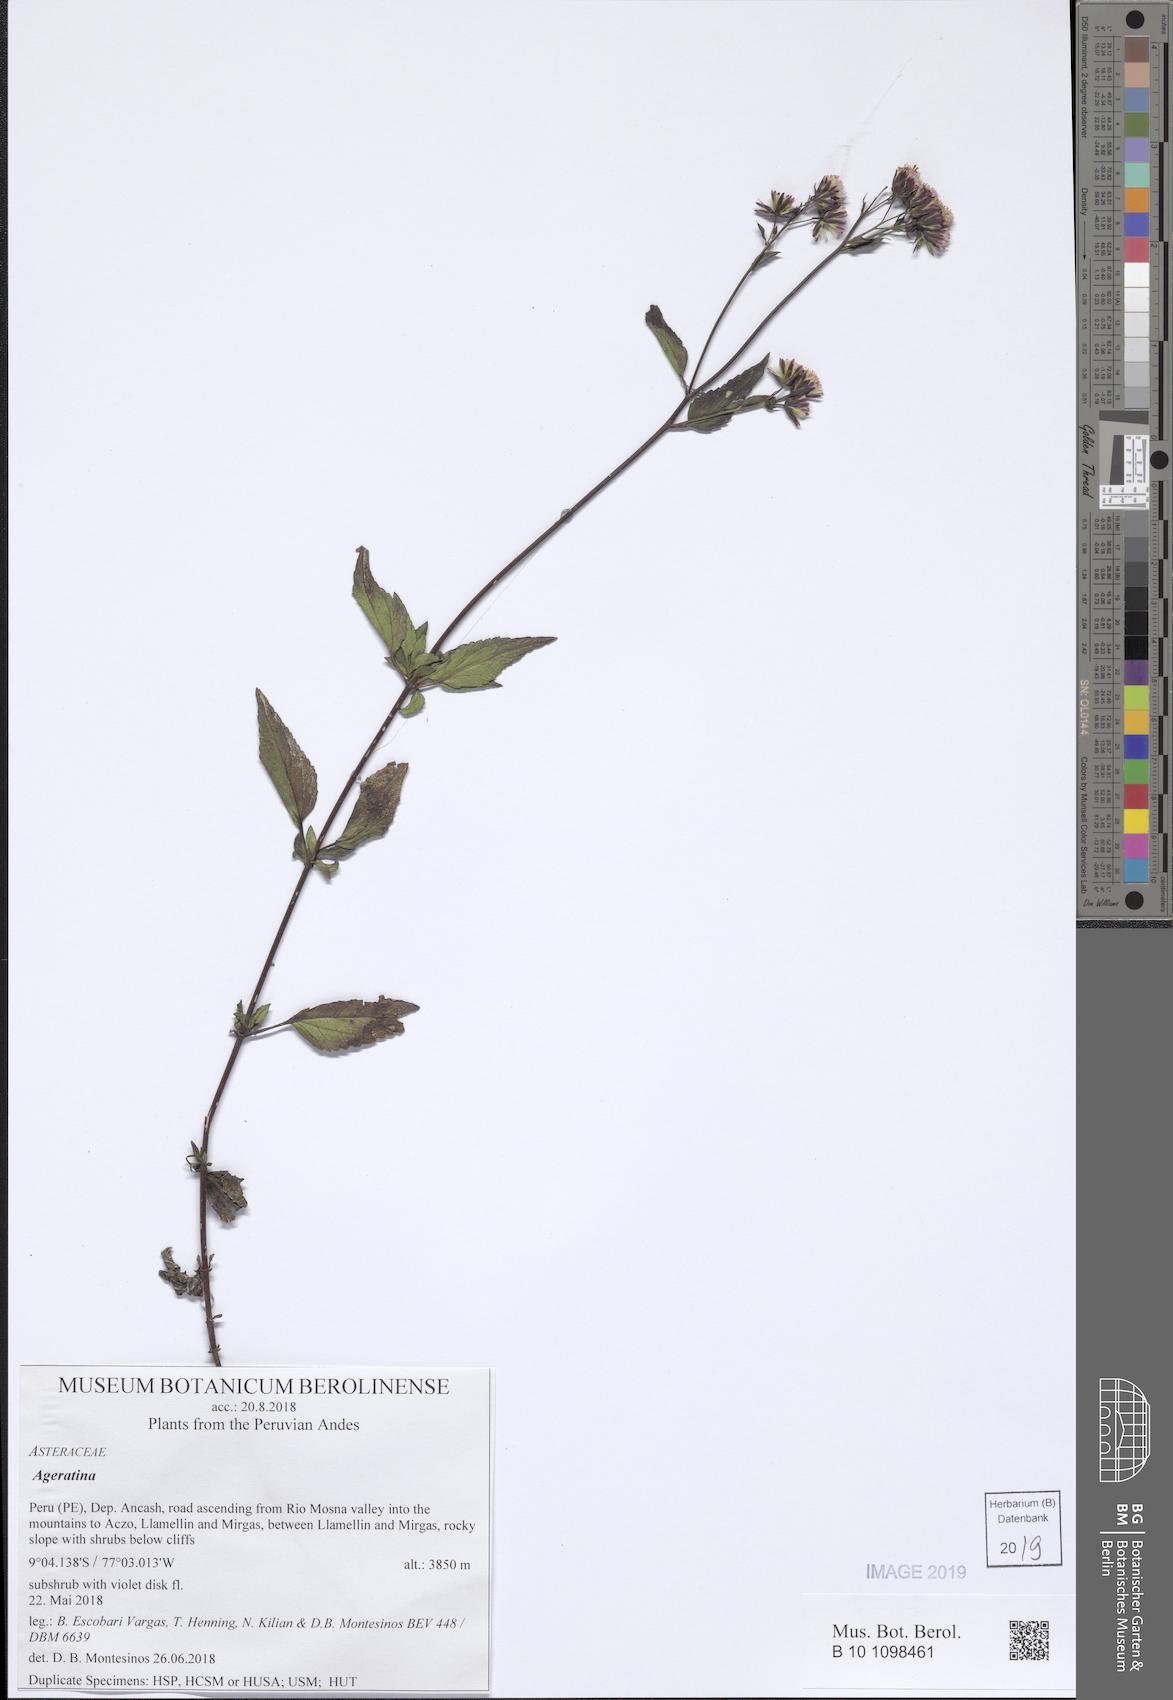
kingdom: Plantae
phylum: Tracheophyta
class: Magnoliopsida
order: Asterales
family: Asteraceae
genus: Ageratina
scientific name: Ageratina
